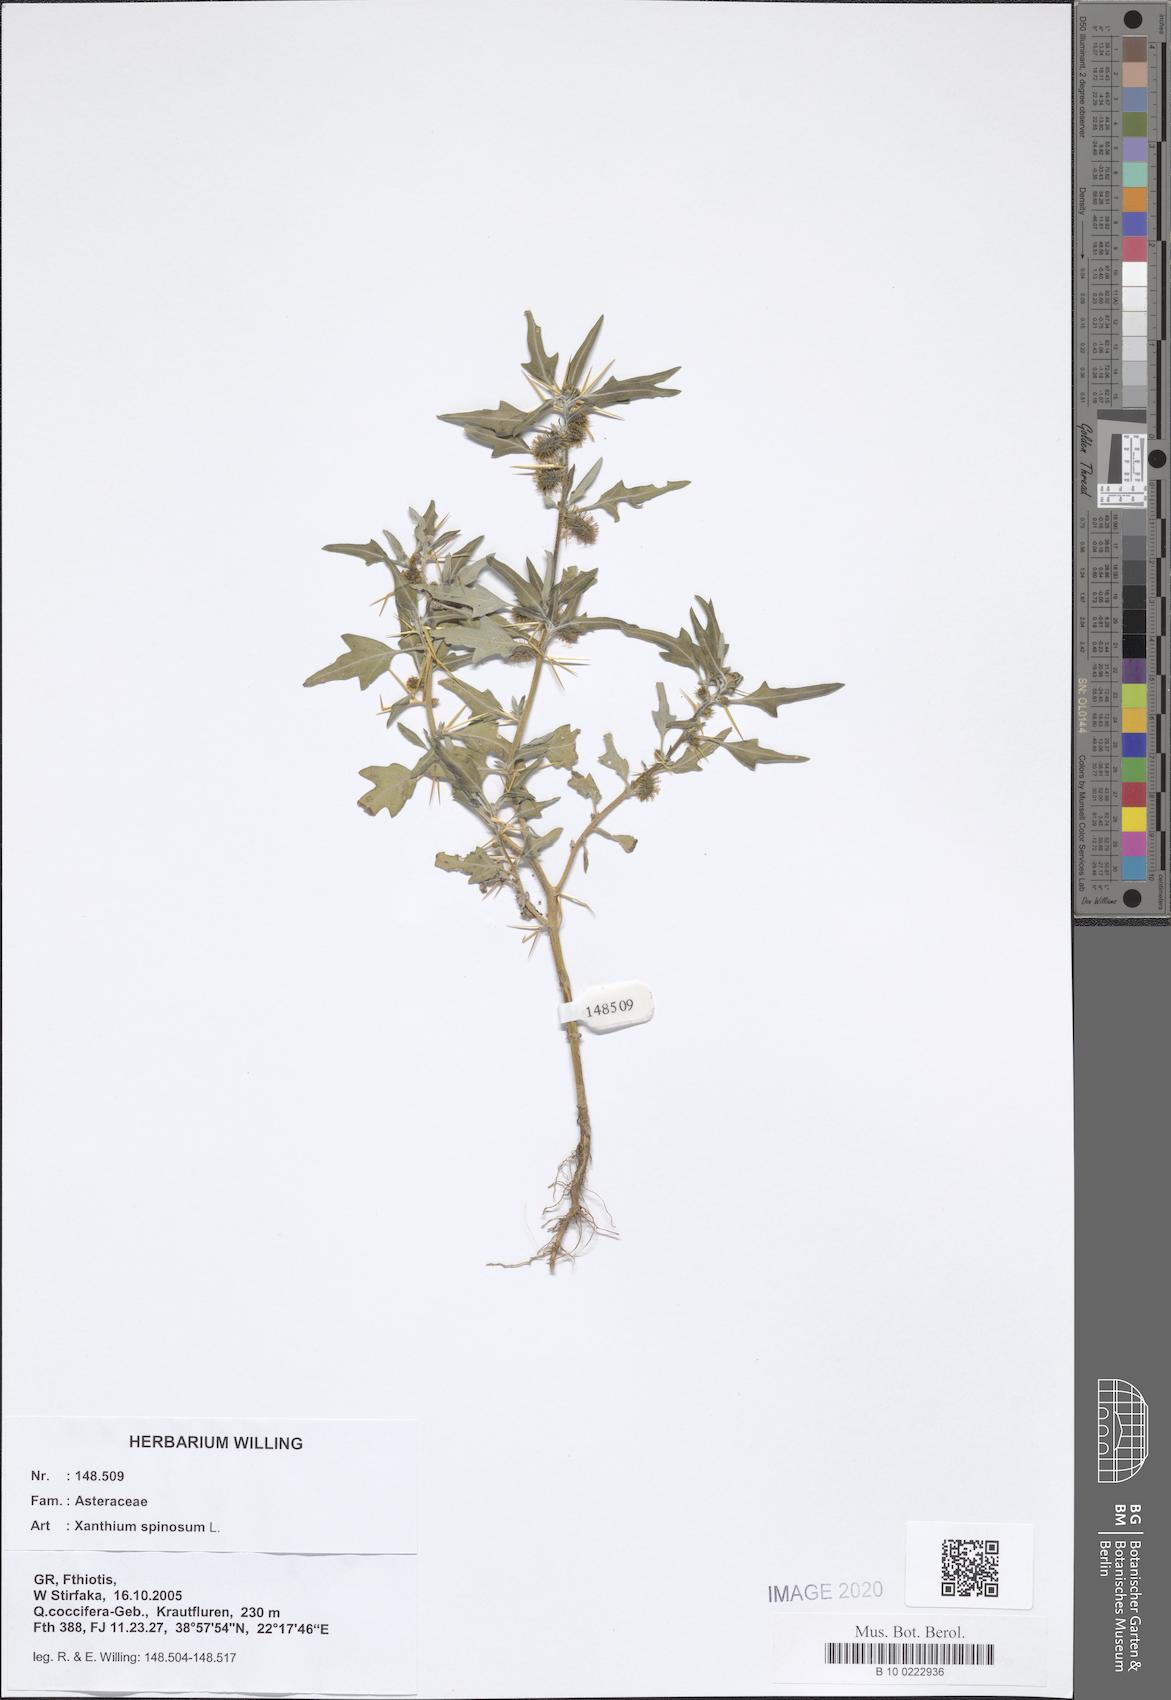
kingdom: Plantae
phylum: Tracheophyta
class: Magnoliopsida
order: Asterales
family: Asteraceae
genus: Xanthium
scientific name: Xanthium spinosum
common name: Spiny cocklebur
